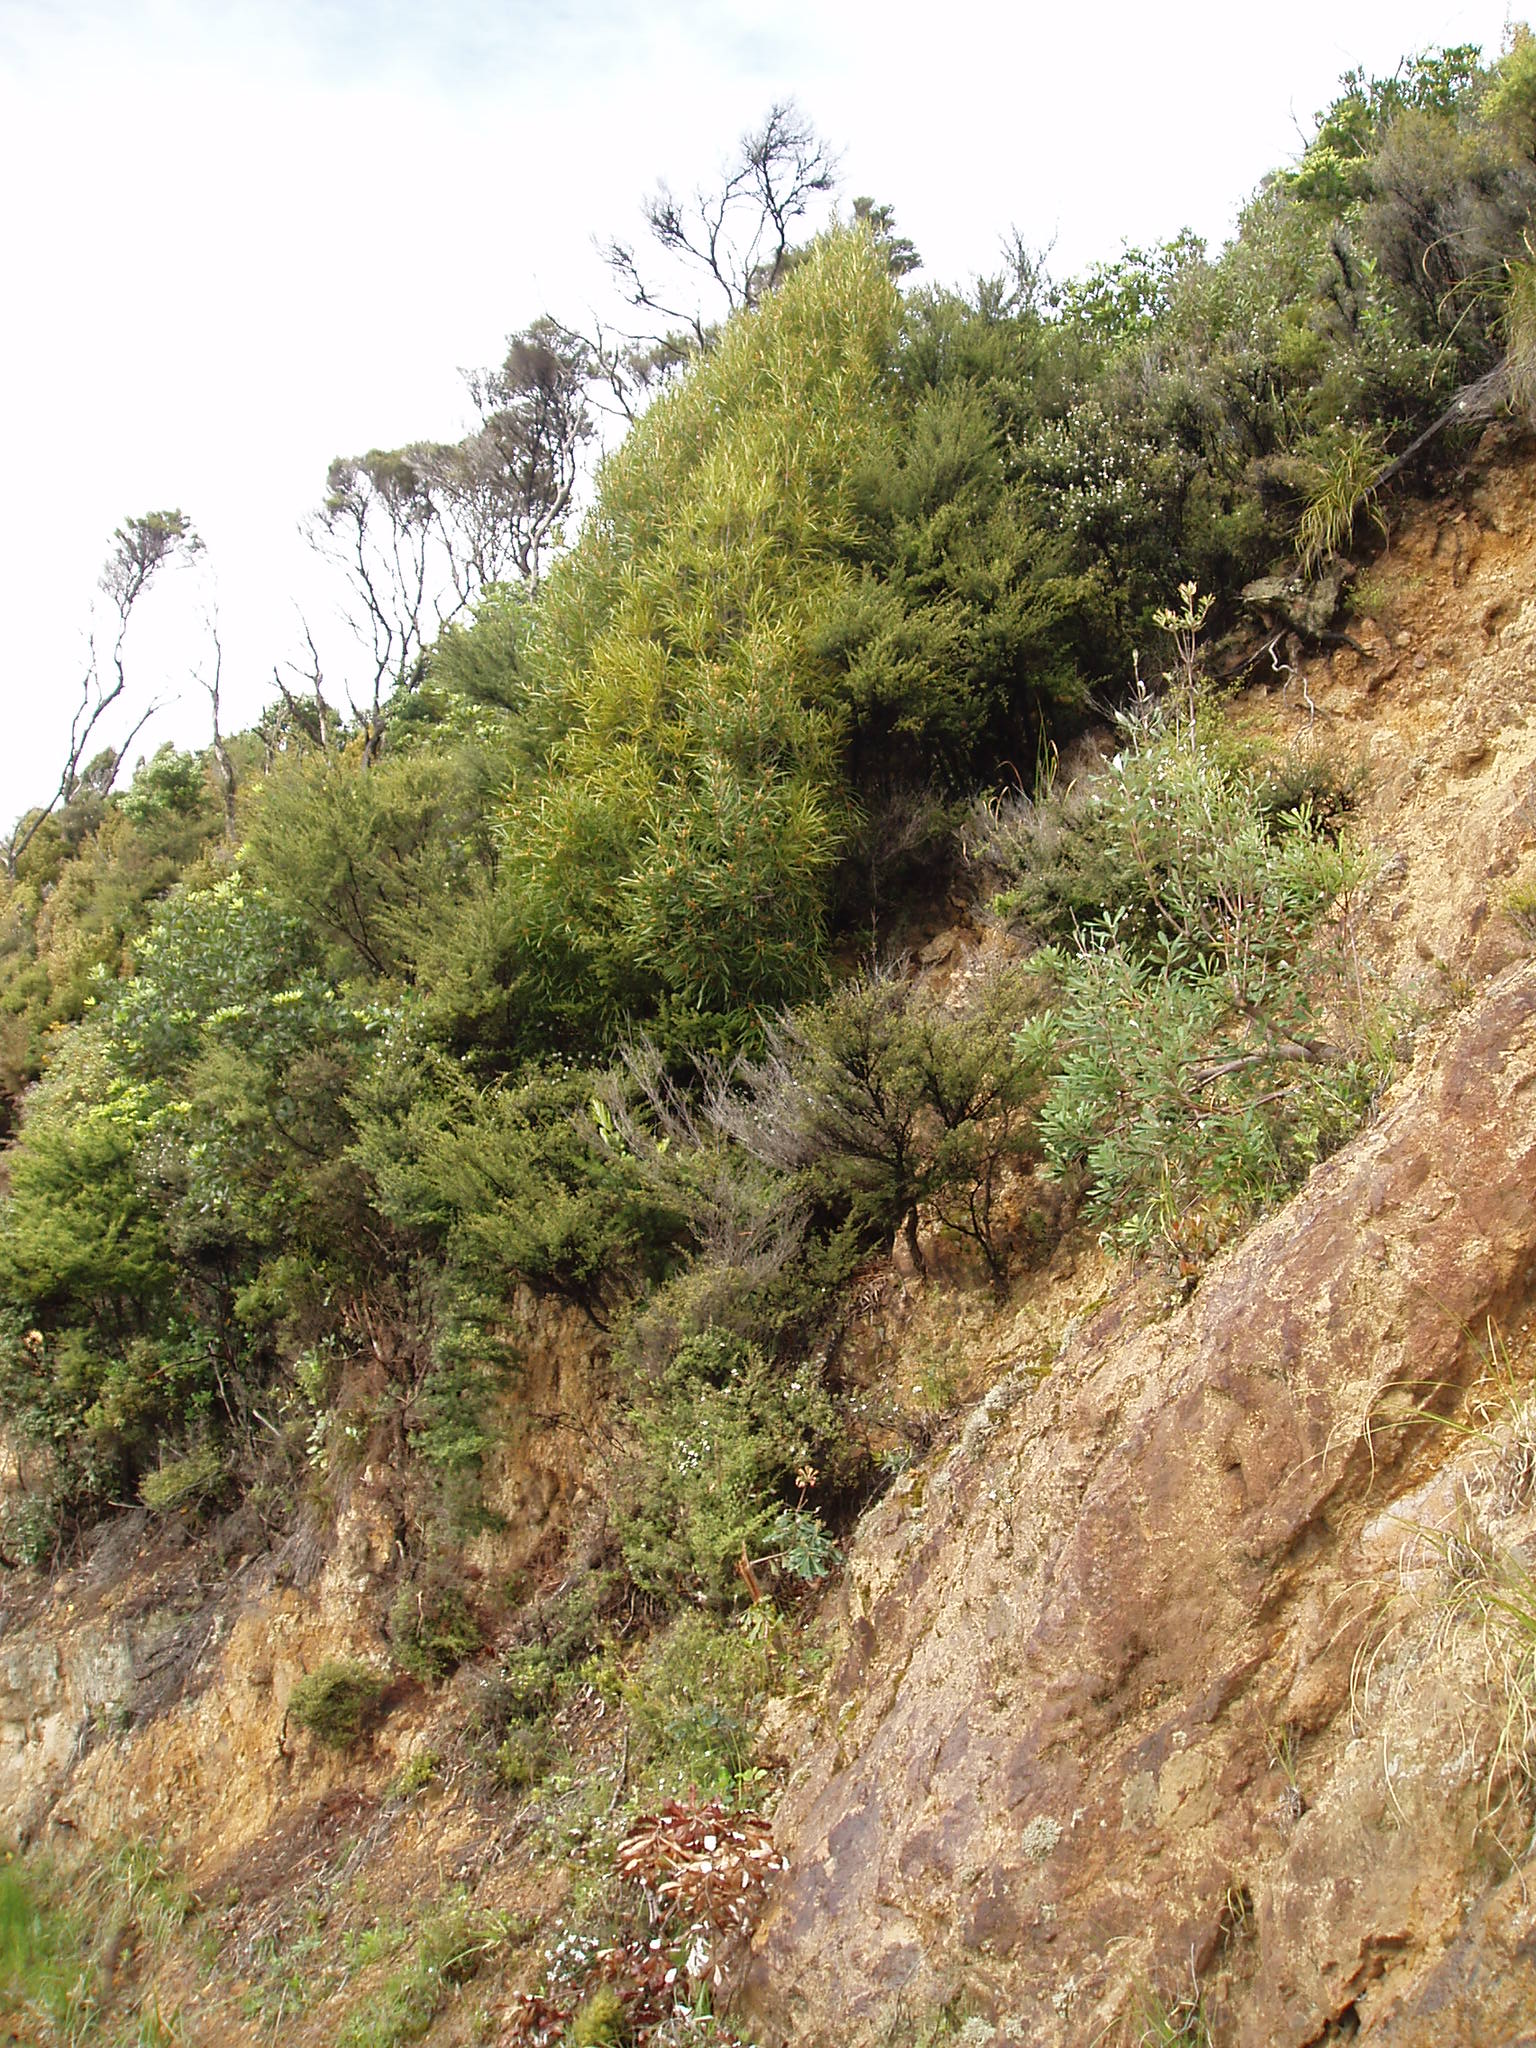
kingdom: Plantae
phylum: Tracheophyta
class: Magnoliopsida
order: Proteales
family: Proteaceae
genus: Banksia
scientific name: Banksia integrifolia
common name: White-honeysuckle
